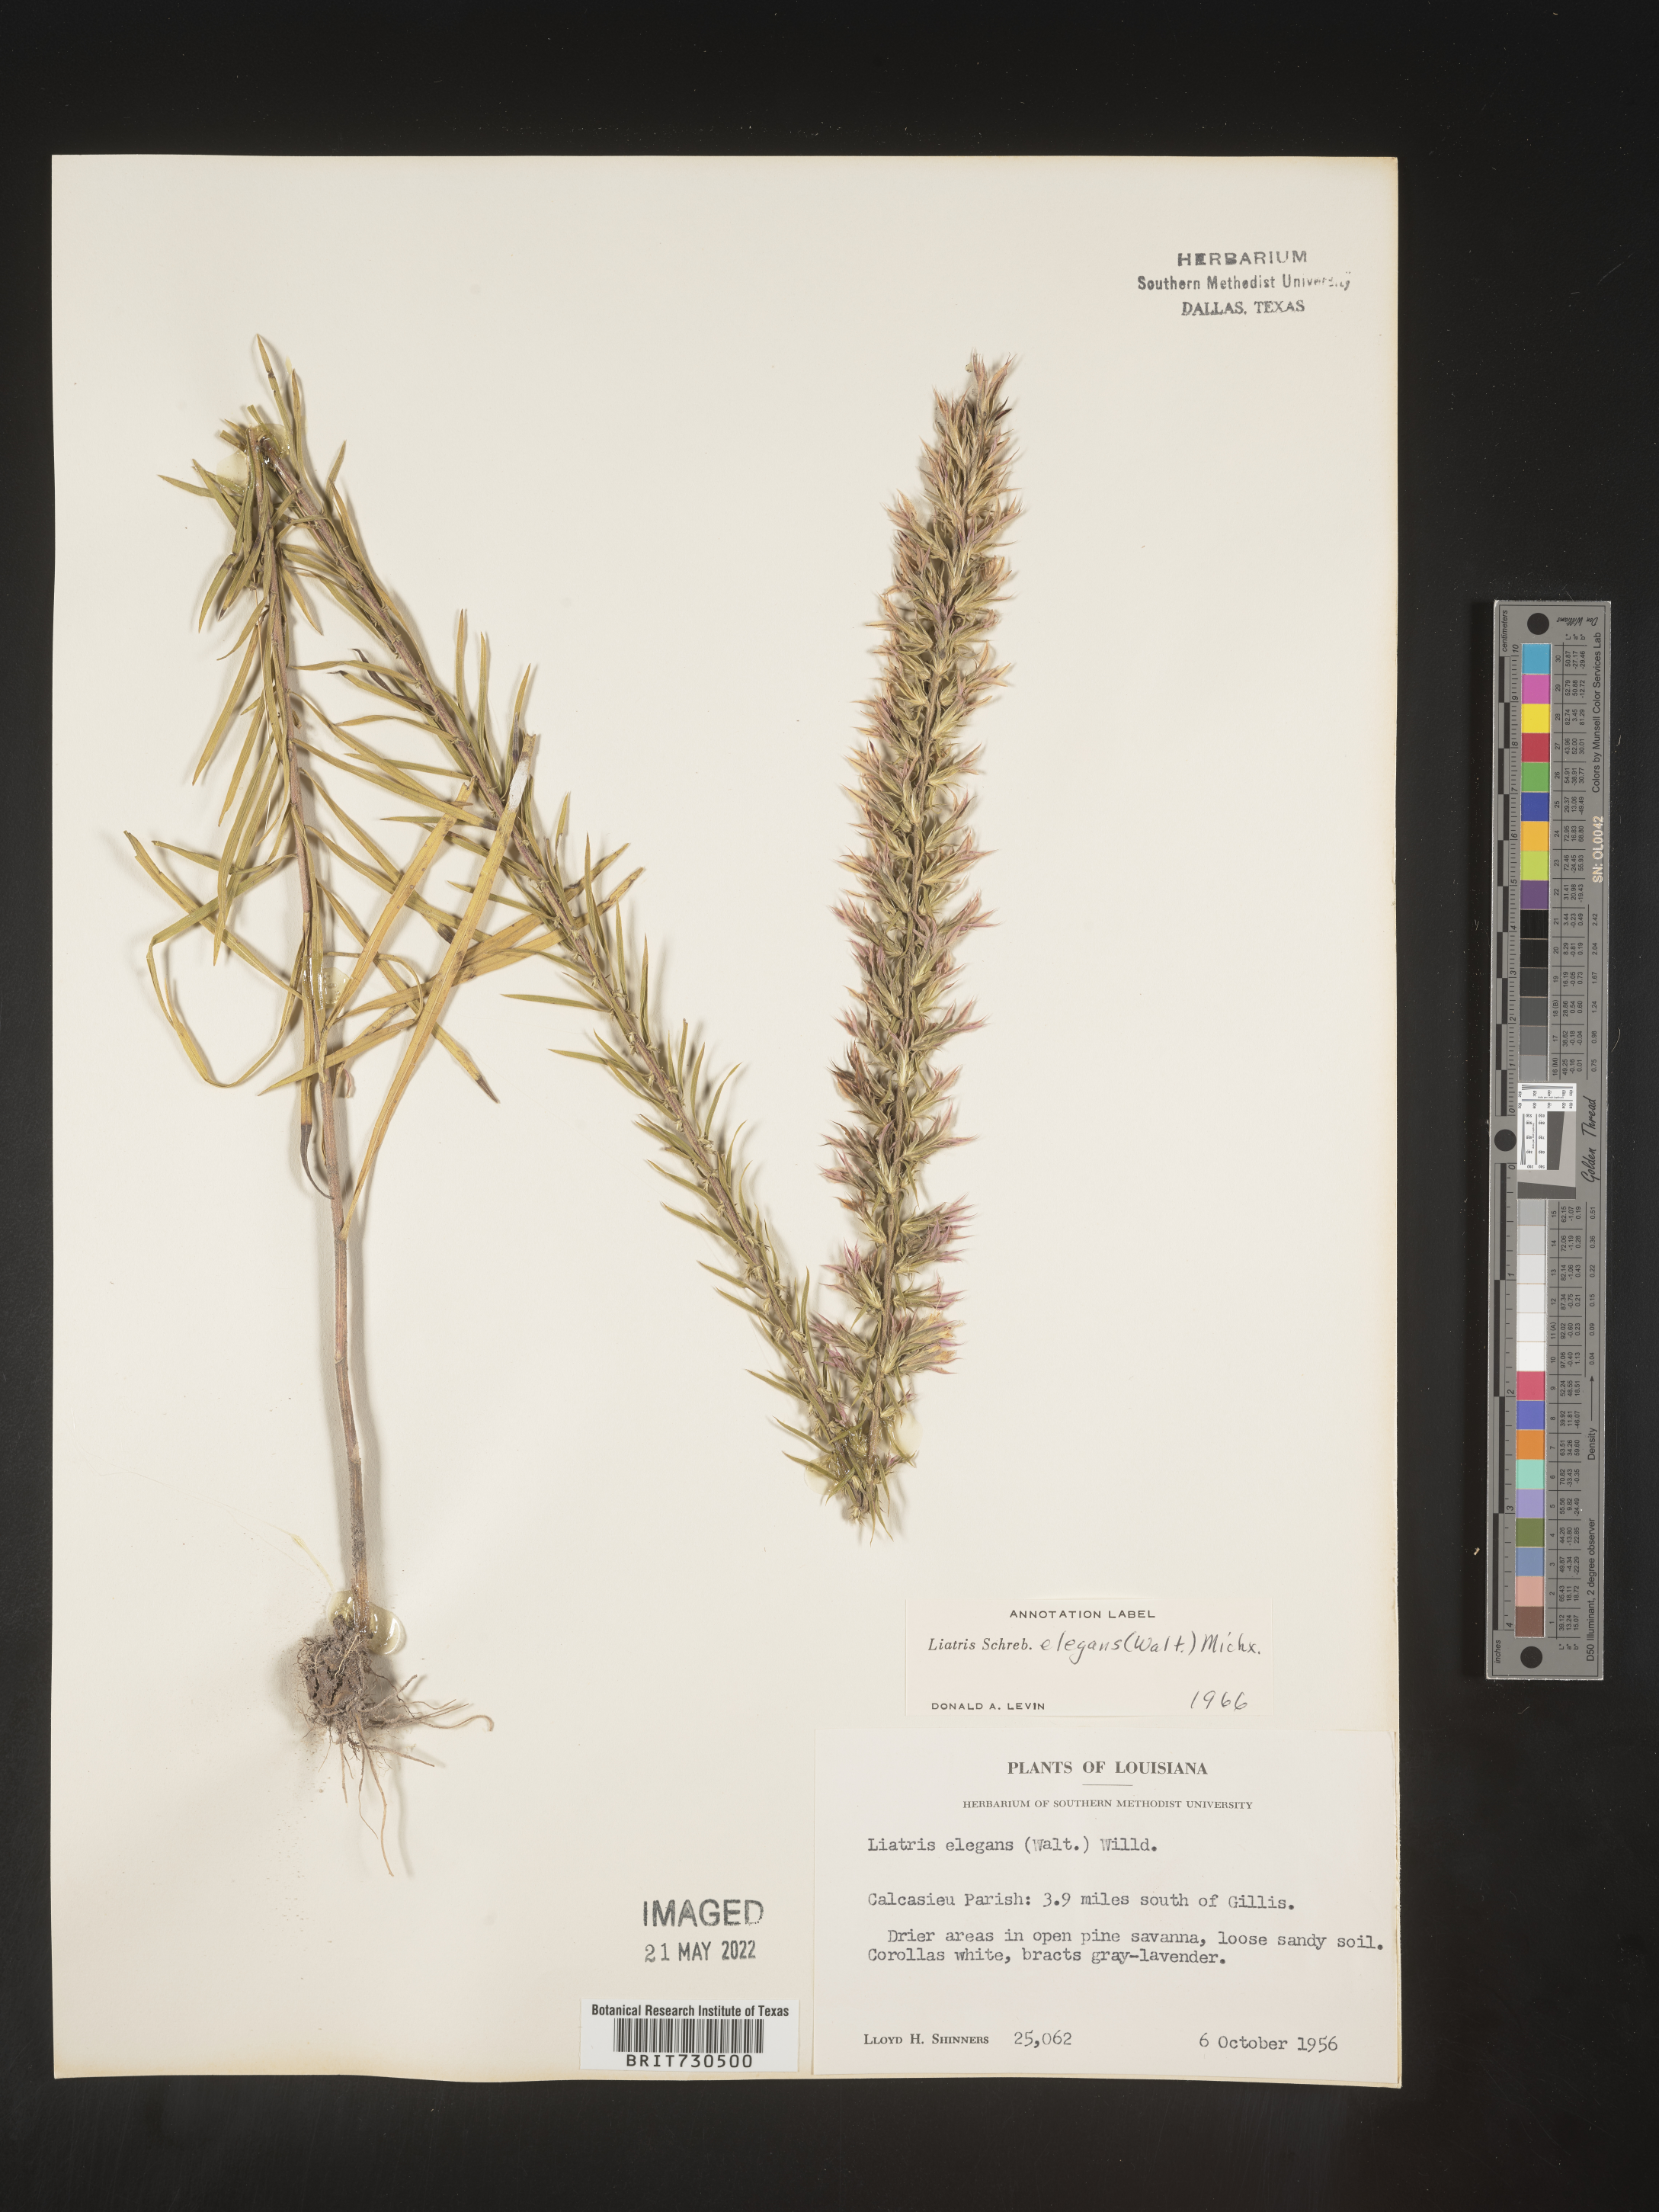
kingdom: Plantae
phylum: Tracheophyta
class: Magnoliopsida
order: Asterales
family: Asteraceae
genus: Liatris
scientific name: Liatris elegans
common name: Pinkscale gayfeather
